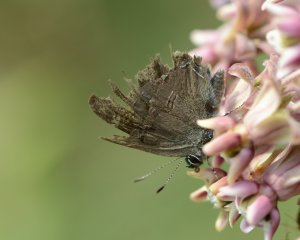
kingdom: Animalia
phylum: Arthropoda
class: Insecta
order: Lepidoptera
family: Lycaenidae
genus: Satyrium
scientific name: Satyrium calanus
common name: Banded Hairstreak
